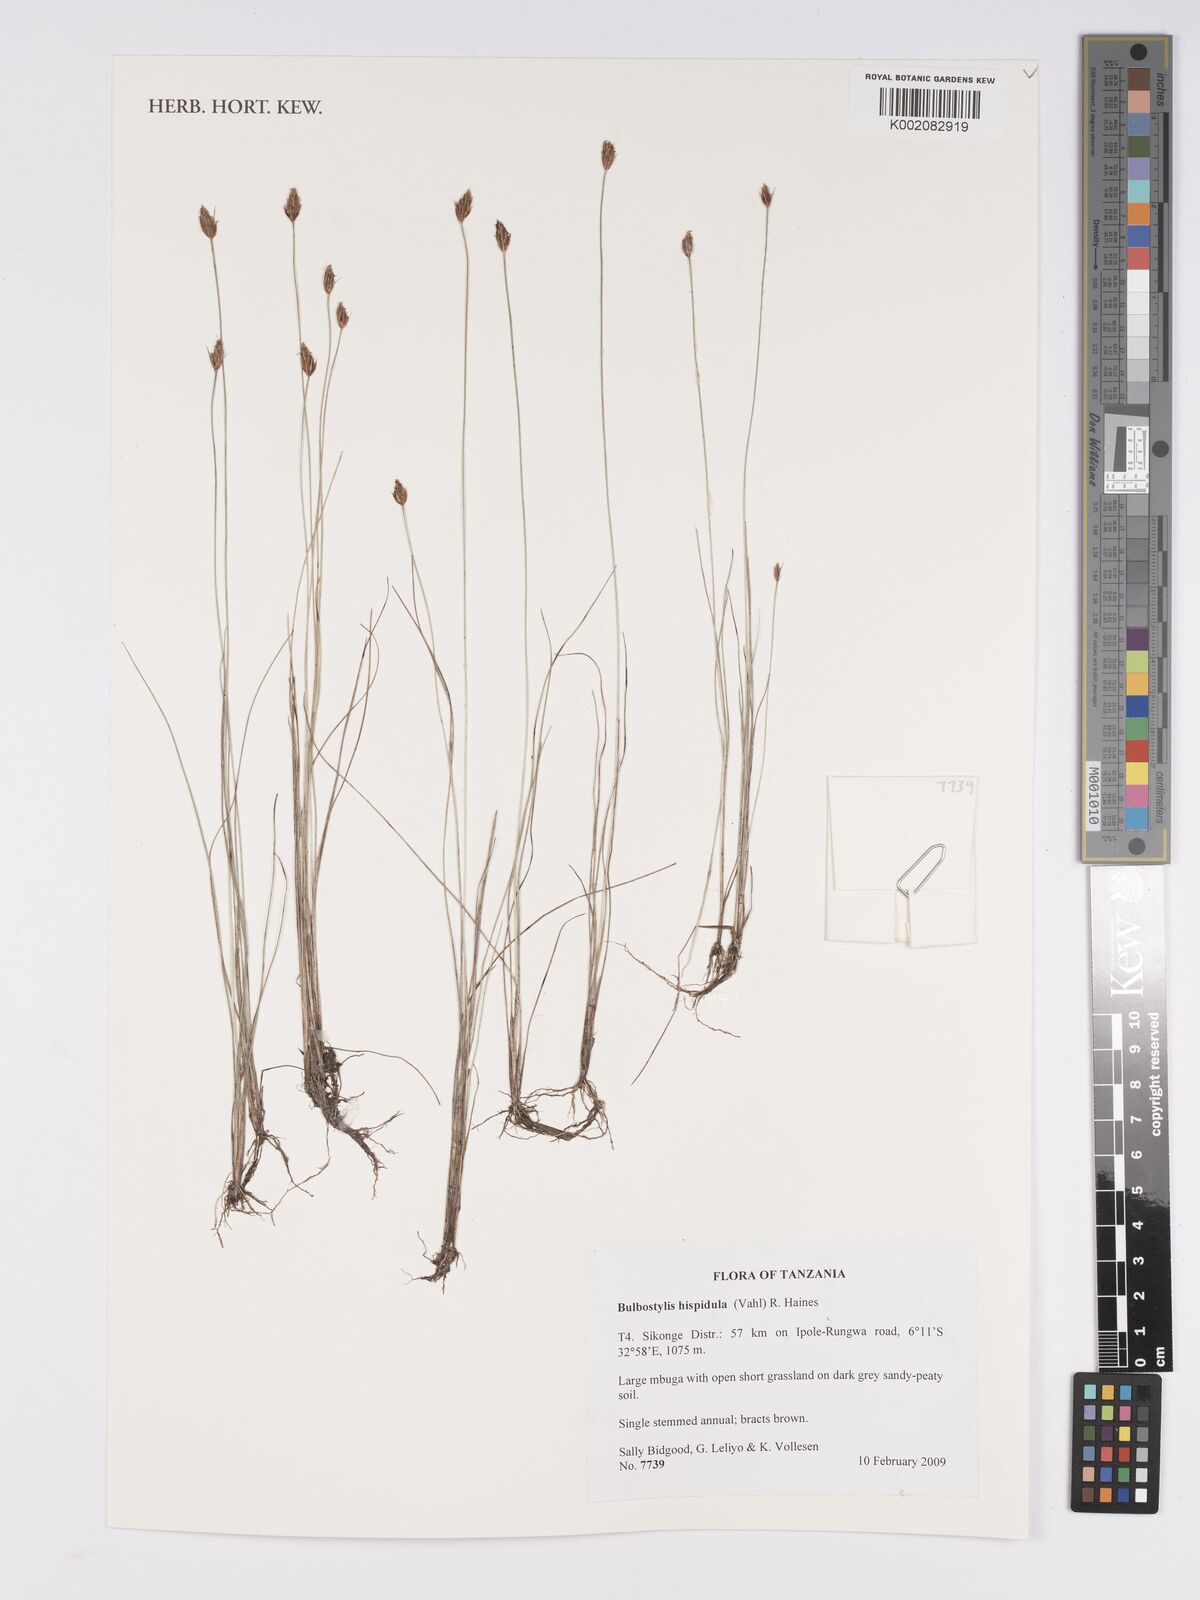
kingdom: Plantae
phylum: Tracheophyta
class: Liliopsida
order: Poales
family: Cyperaceae
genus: Bulbostylis
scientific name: Bulbostylis hispidula
